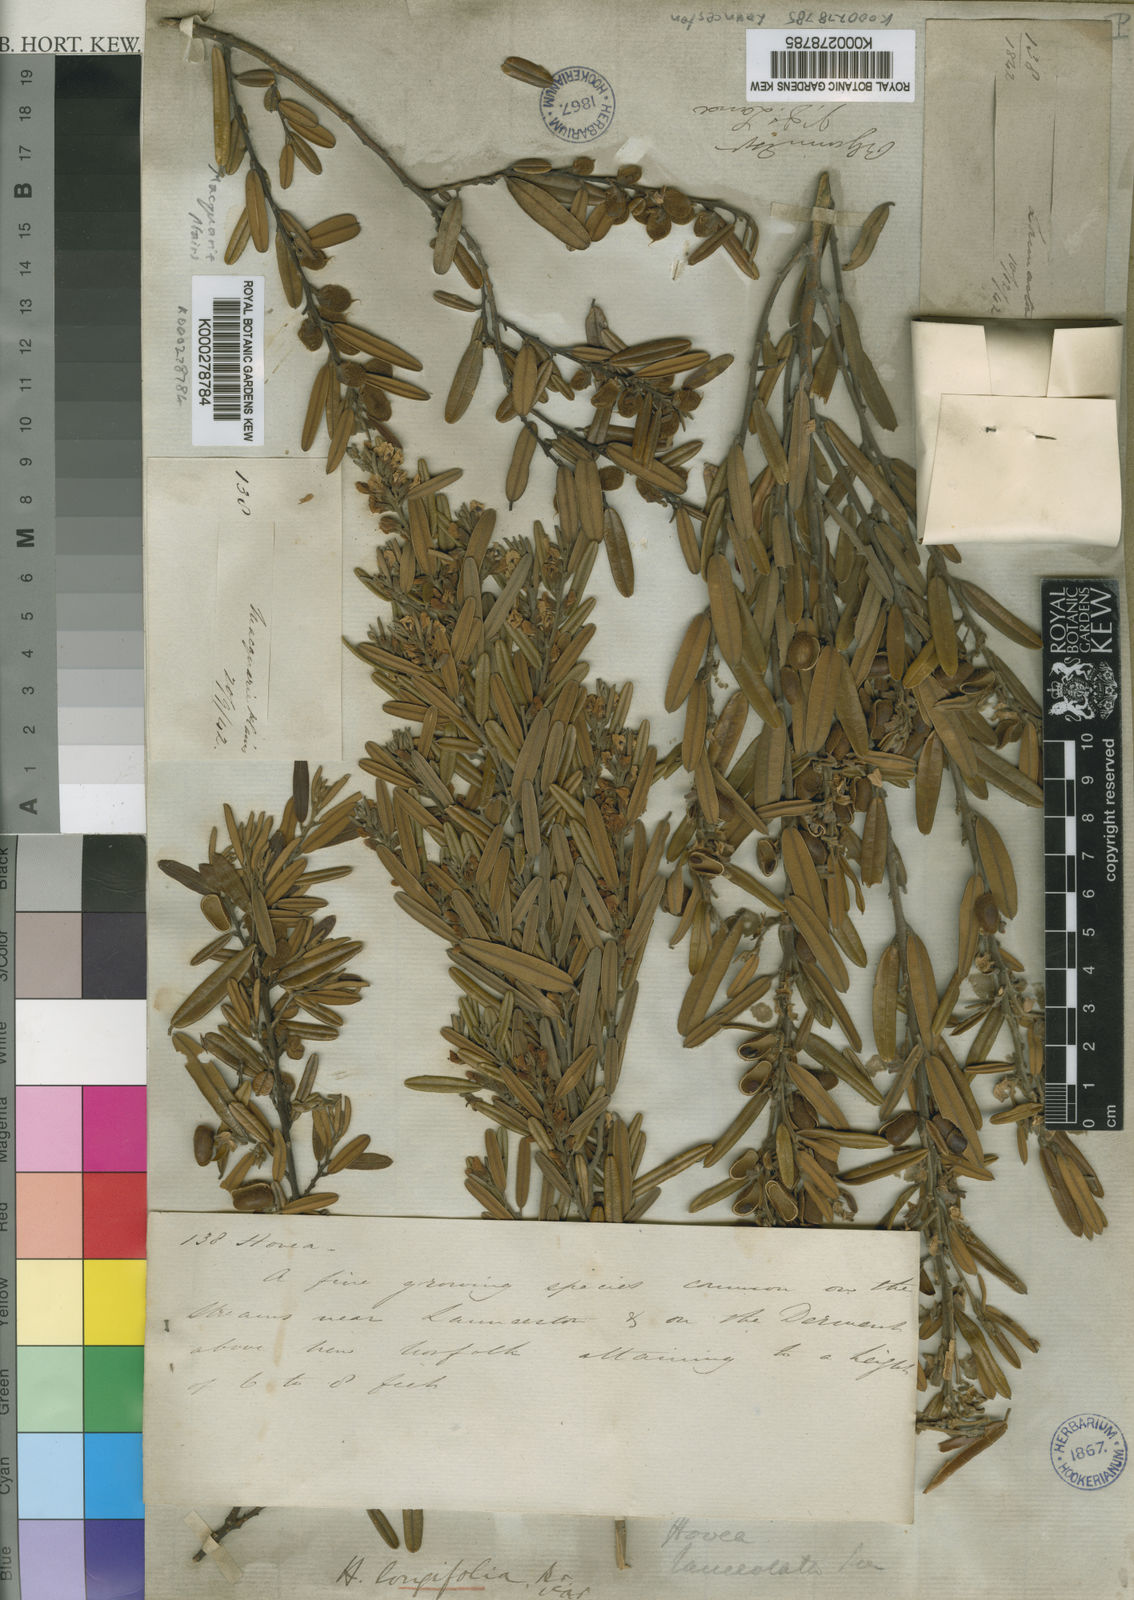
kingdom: Plantae
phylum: Tracheophyta
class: Magnoliopsida
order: Fabales
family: Fabaceae
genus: Hovea
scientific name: Hovea lanceolata
